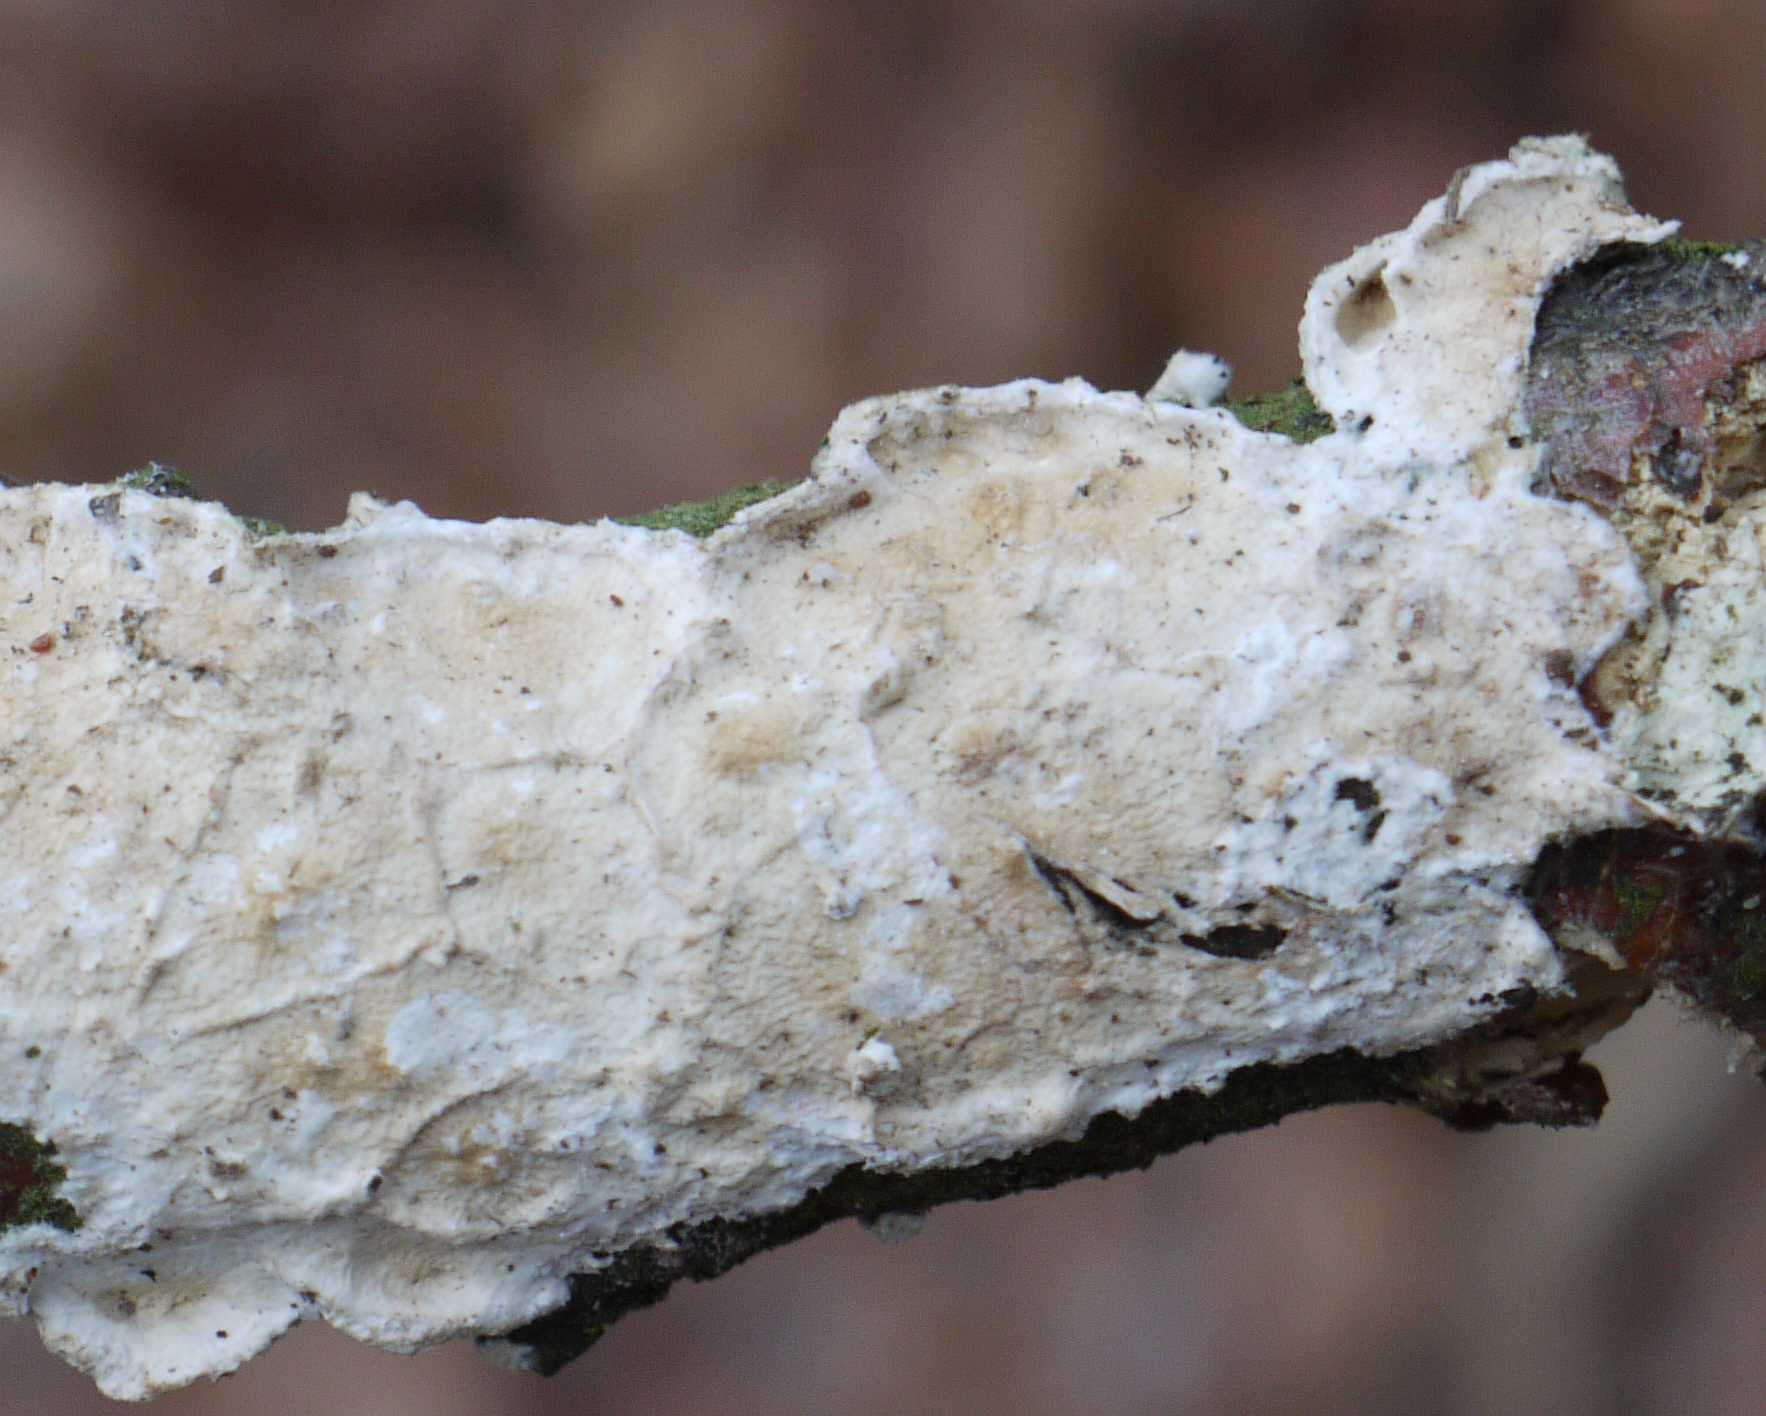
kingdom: Fungi
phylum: Basidiomycota
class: Agaricomycetes
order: Polyporales
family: Irpicaceae
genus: Byssomerulius
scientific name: Byssomerulius corium
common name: læder-åresvamp
